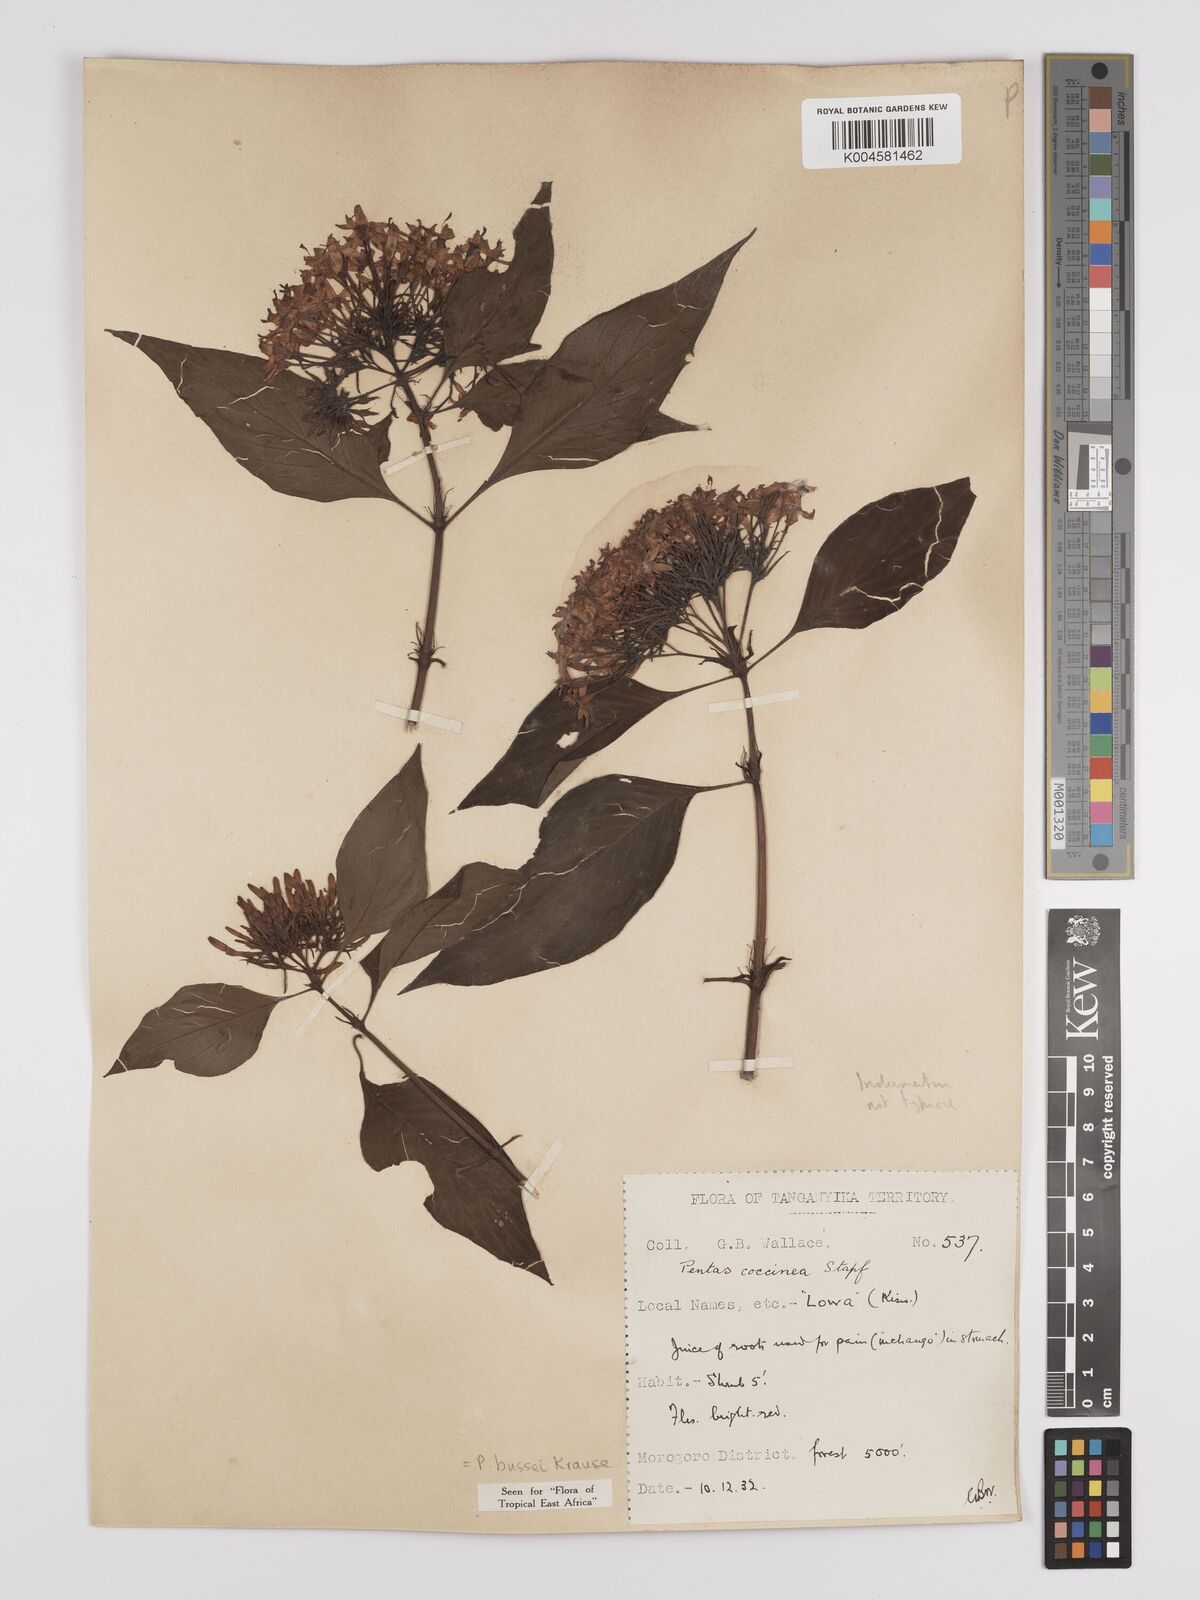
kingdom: Plantae
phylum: Tracheophyta
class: Magnoliopsida
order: Gentianales
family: Rubiaceae
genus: Rhodopentas
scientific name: Rhodopentas bussei
